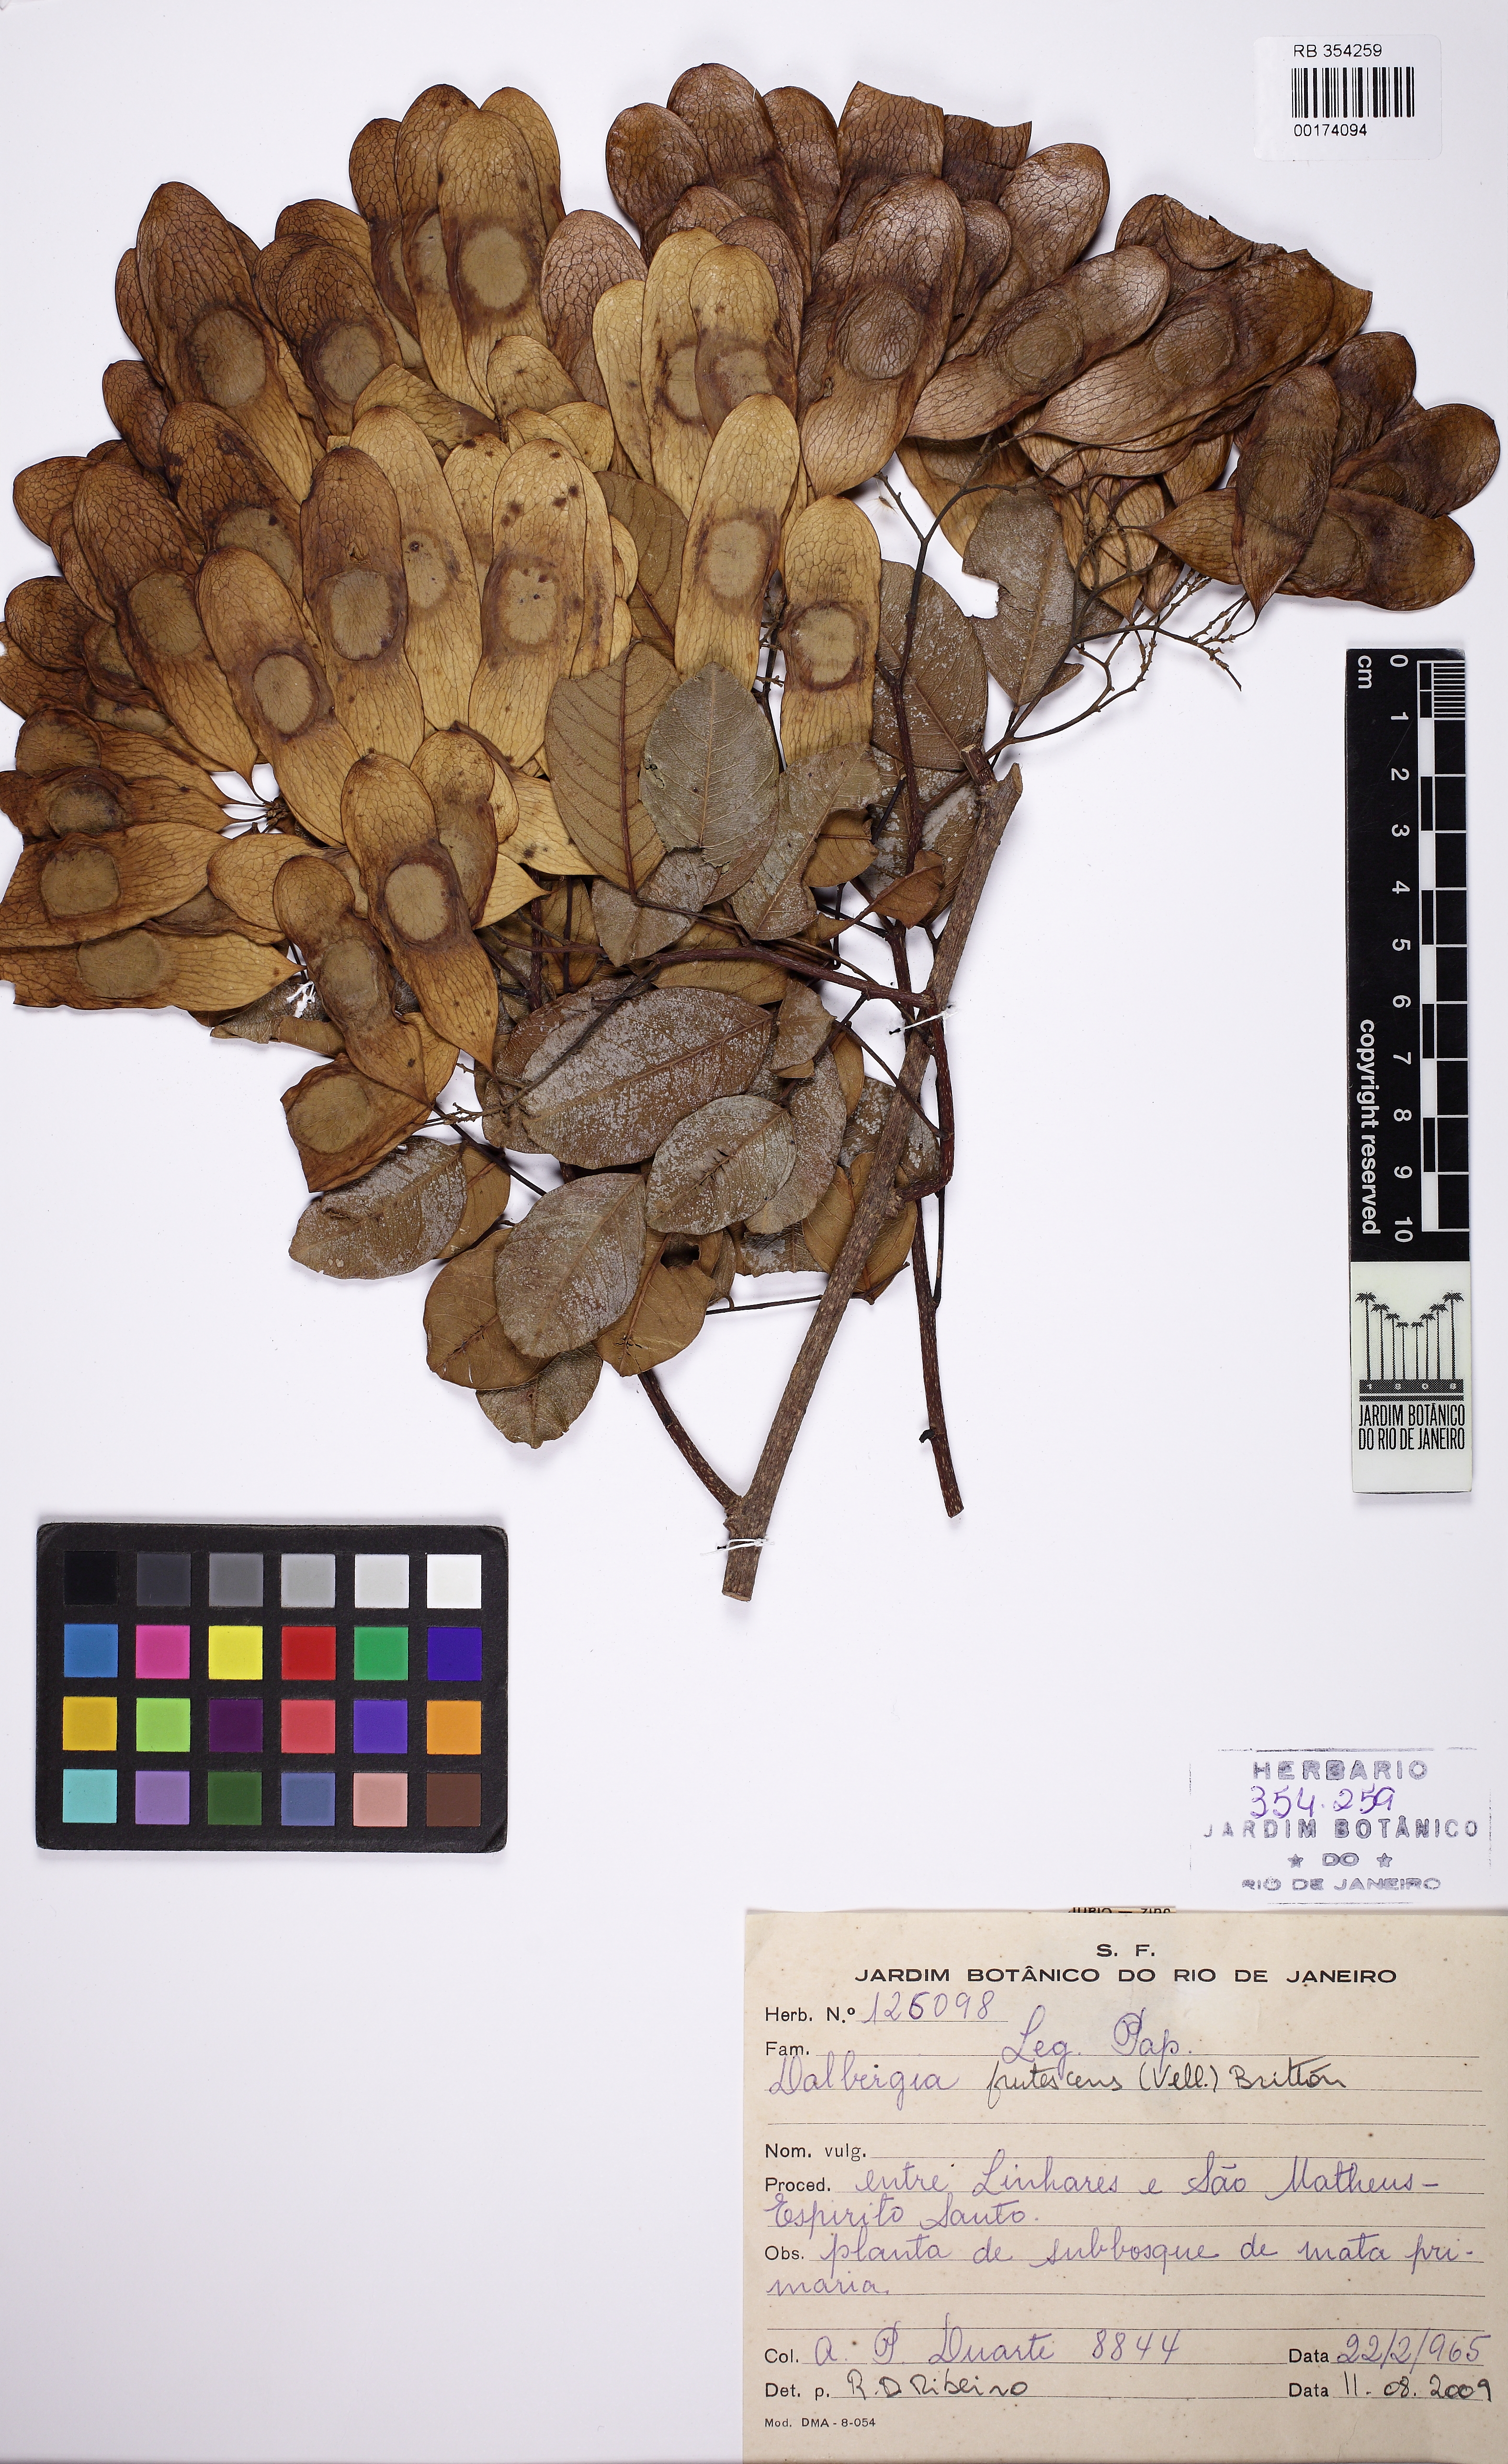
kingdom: Plantae
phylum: Tracheophyta
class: Magnoliopsida
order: Fabales
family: Fabaceae
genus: Dalbergia
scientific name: Dalbergia
